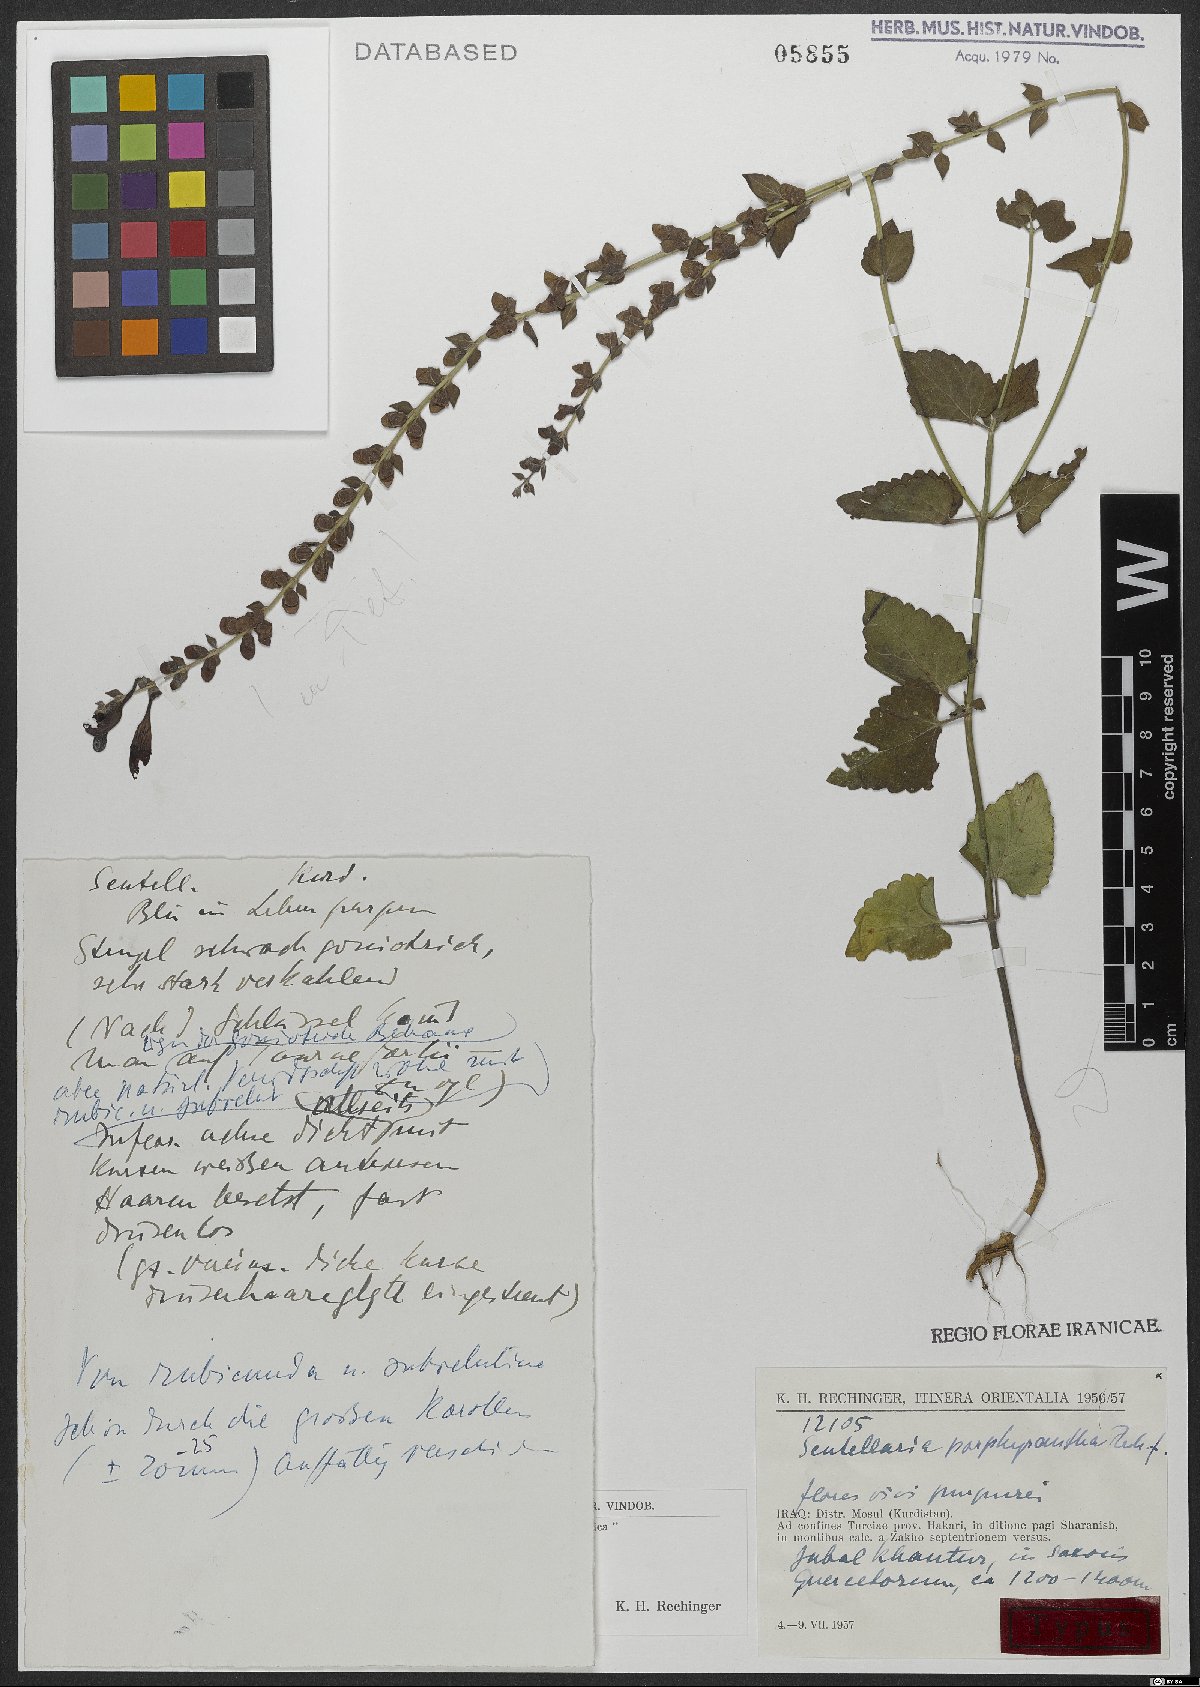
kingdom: Plantae
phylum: Tracheophyta
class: Magnoliopsida
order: Lamiales
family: Lamiaceae
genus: Scutellaria
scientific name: Scutellaria porphyrantha
